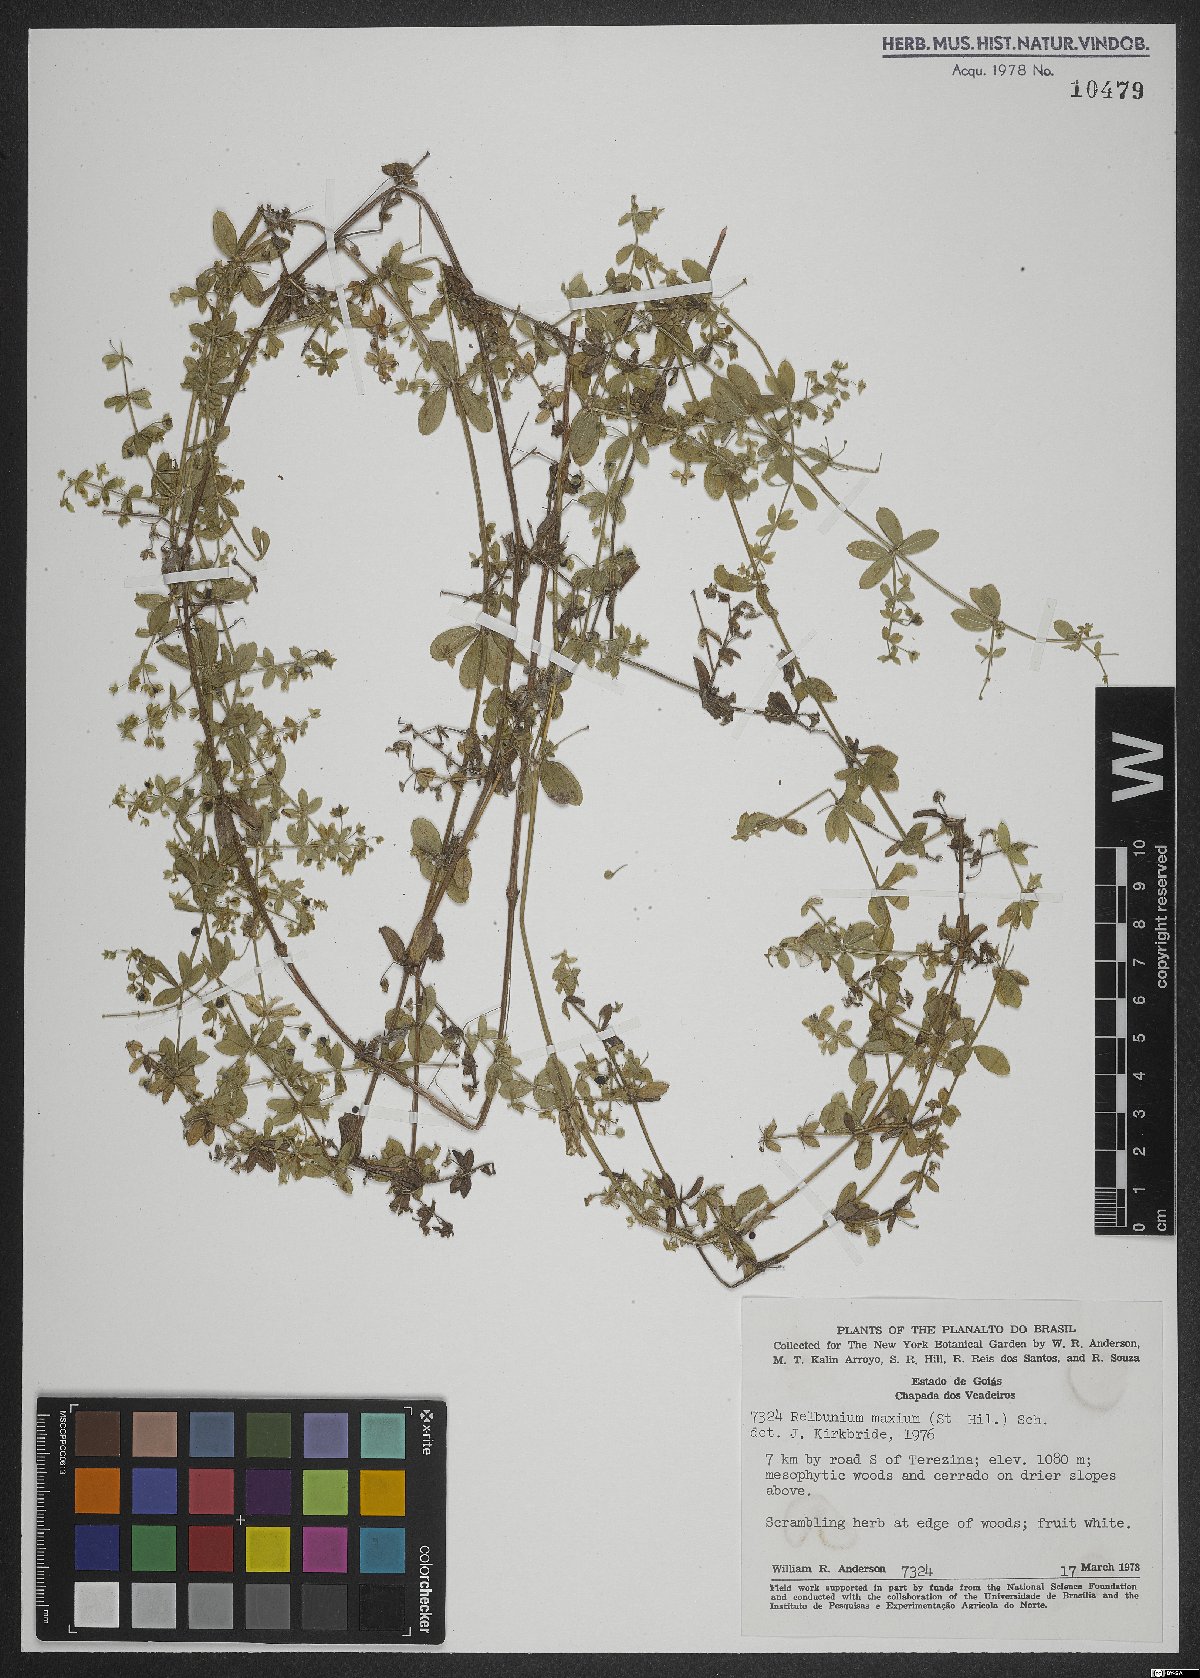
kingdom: Plantae
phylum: Tracheophyta
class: Magnoliopsida
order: Gentianales
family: Rubiaceae
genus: Galium
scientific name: Galium noxium
